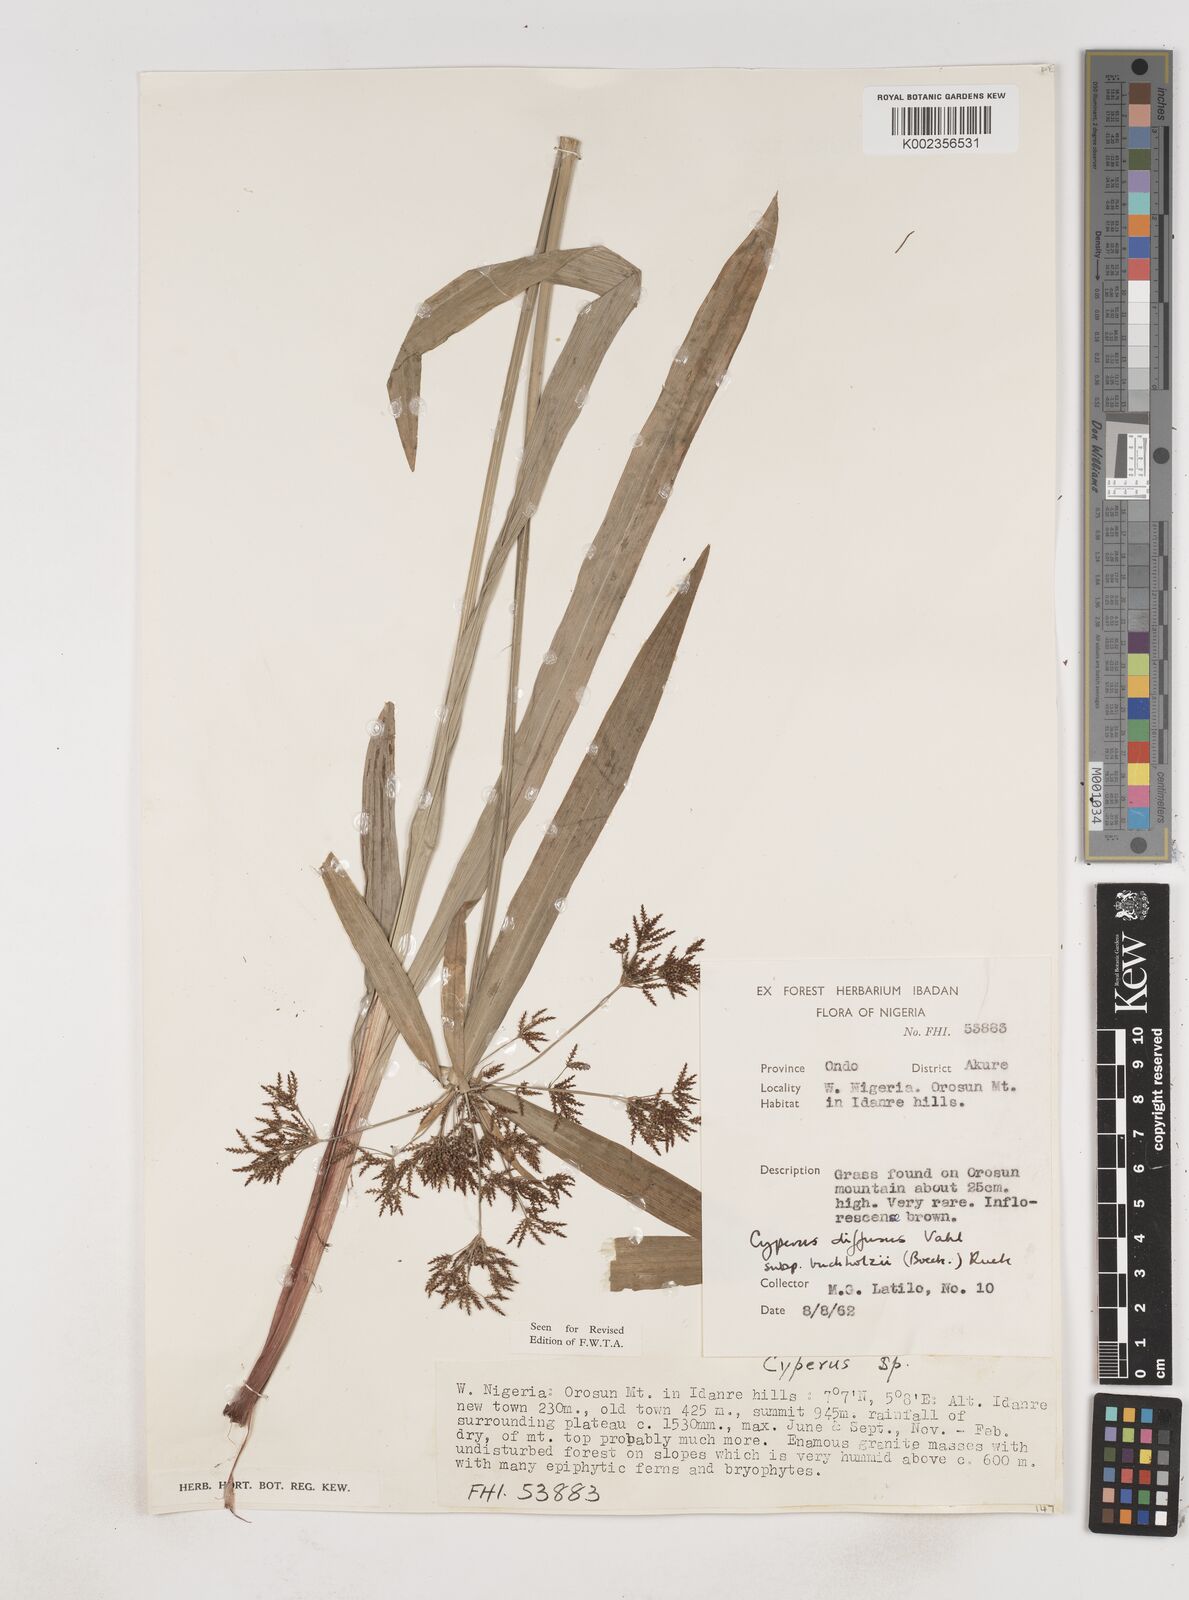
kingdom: Plantae
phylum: Tracheophyta
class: Liliopsida
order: Poales
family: Cyperaceae
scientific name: Cyperaceae
